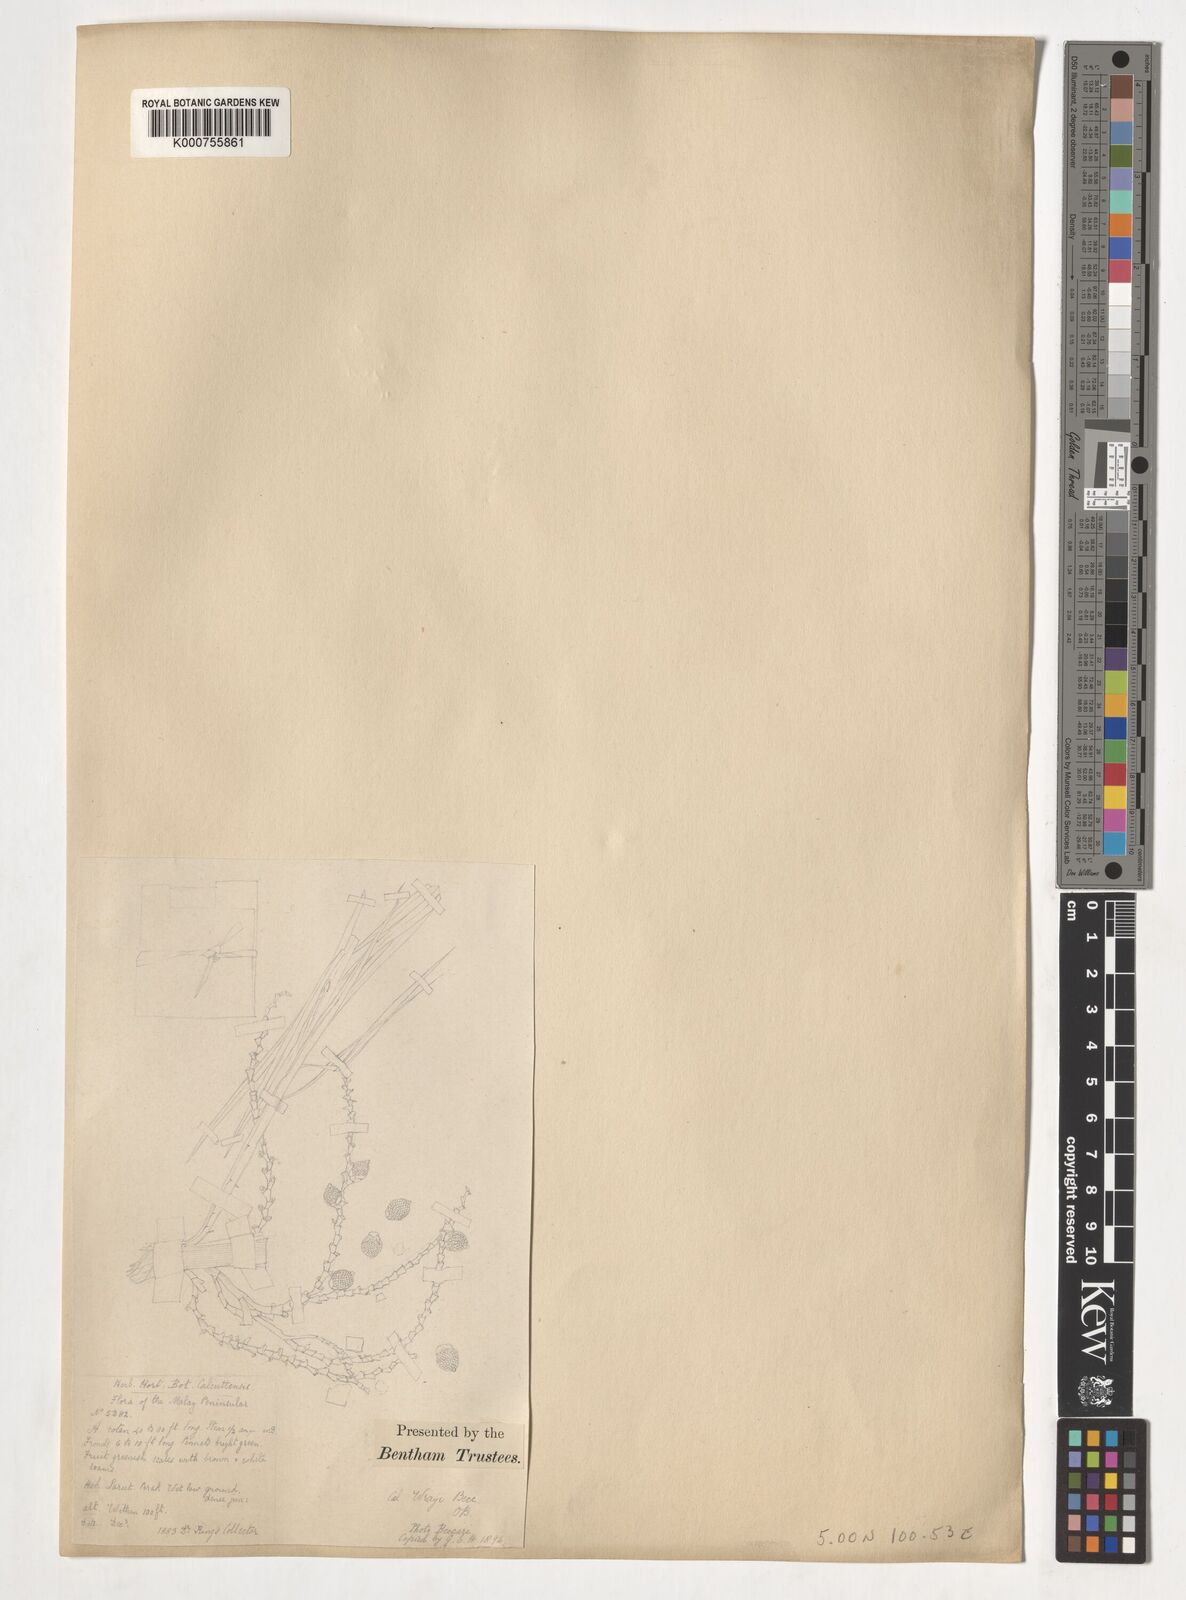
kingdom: Plantae
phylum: Tracheophyta
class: Liliopsida
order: Arecales
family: Arecaceae
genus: Plectocomiopsis
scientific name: Plectocomiopsis wrayi
